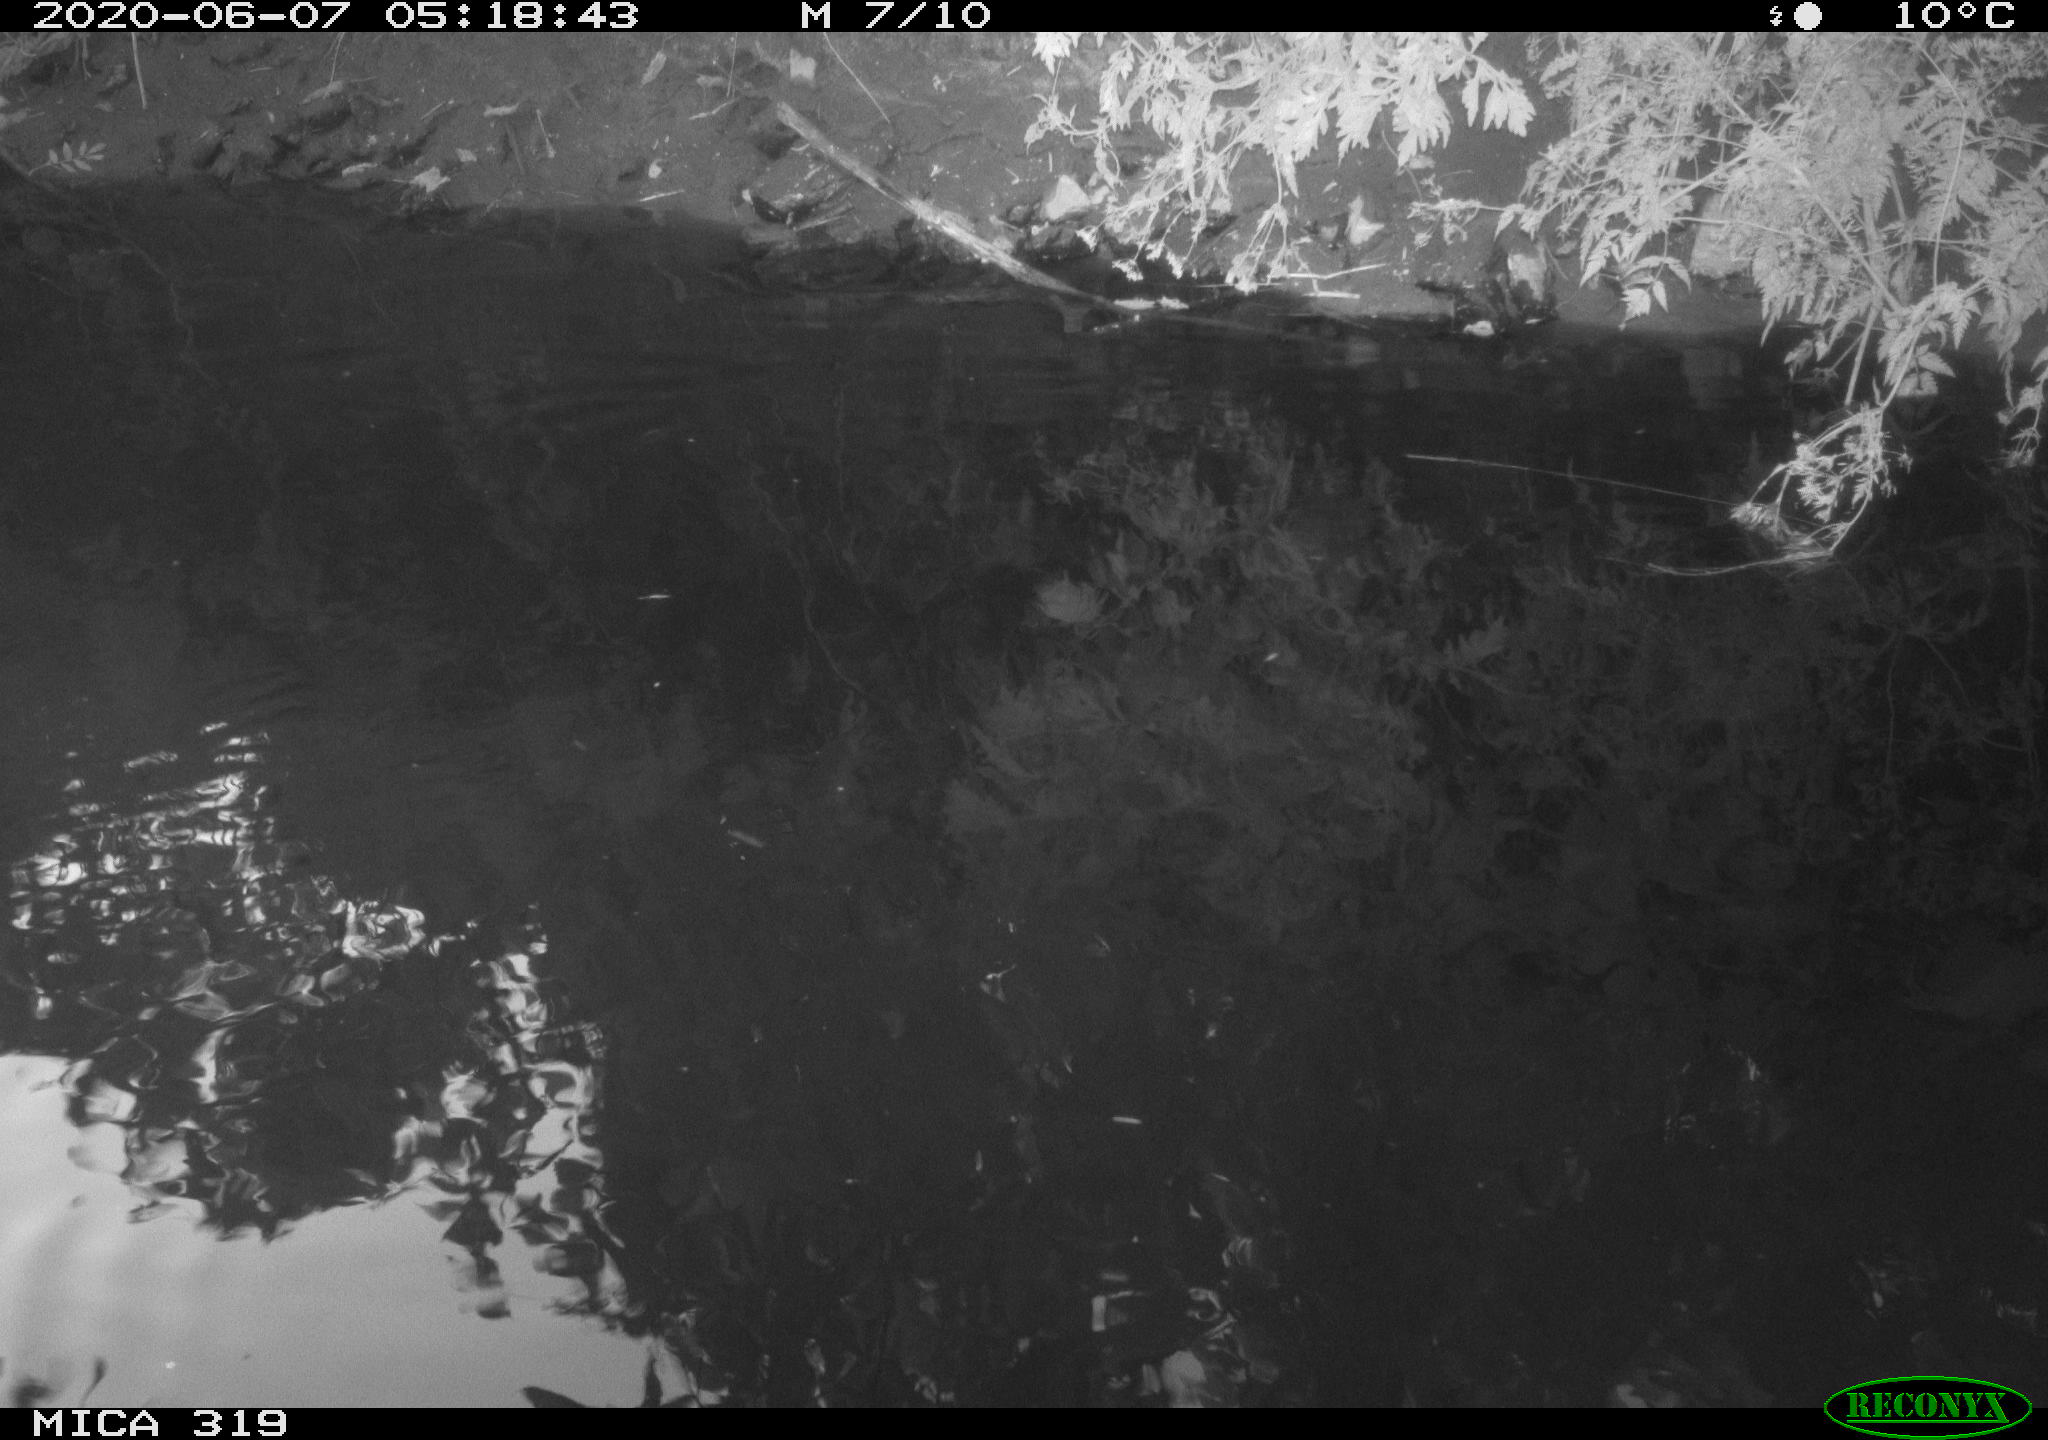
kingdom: Animalia
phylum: Chordata
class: Aves
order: Anseriformes
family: Anatidae
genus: Anas
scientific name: Anas platyrhynchos
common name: Mallard
